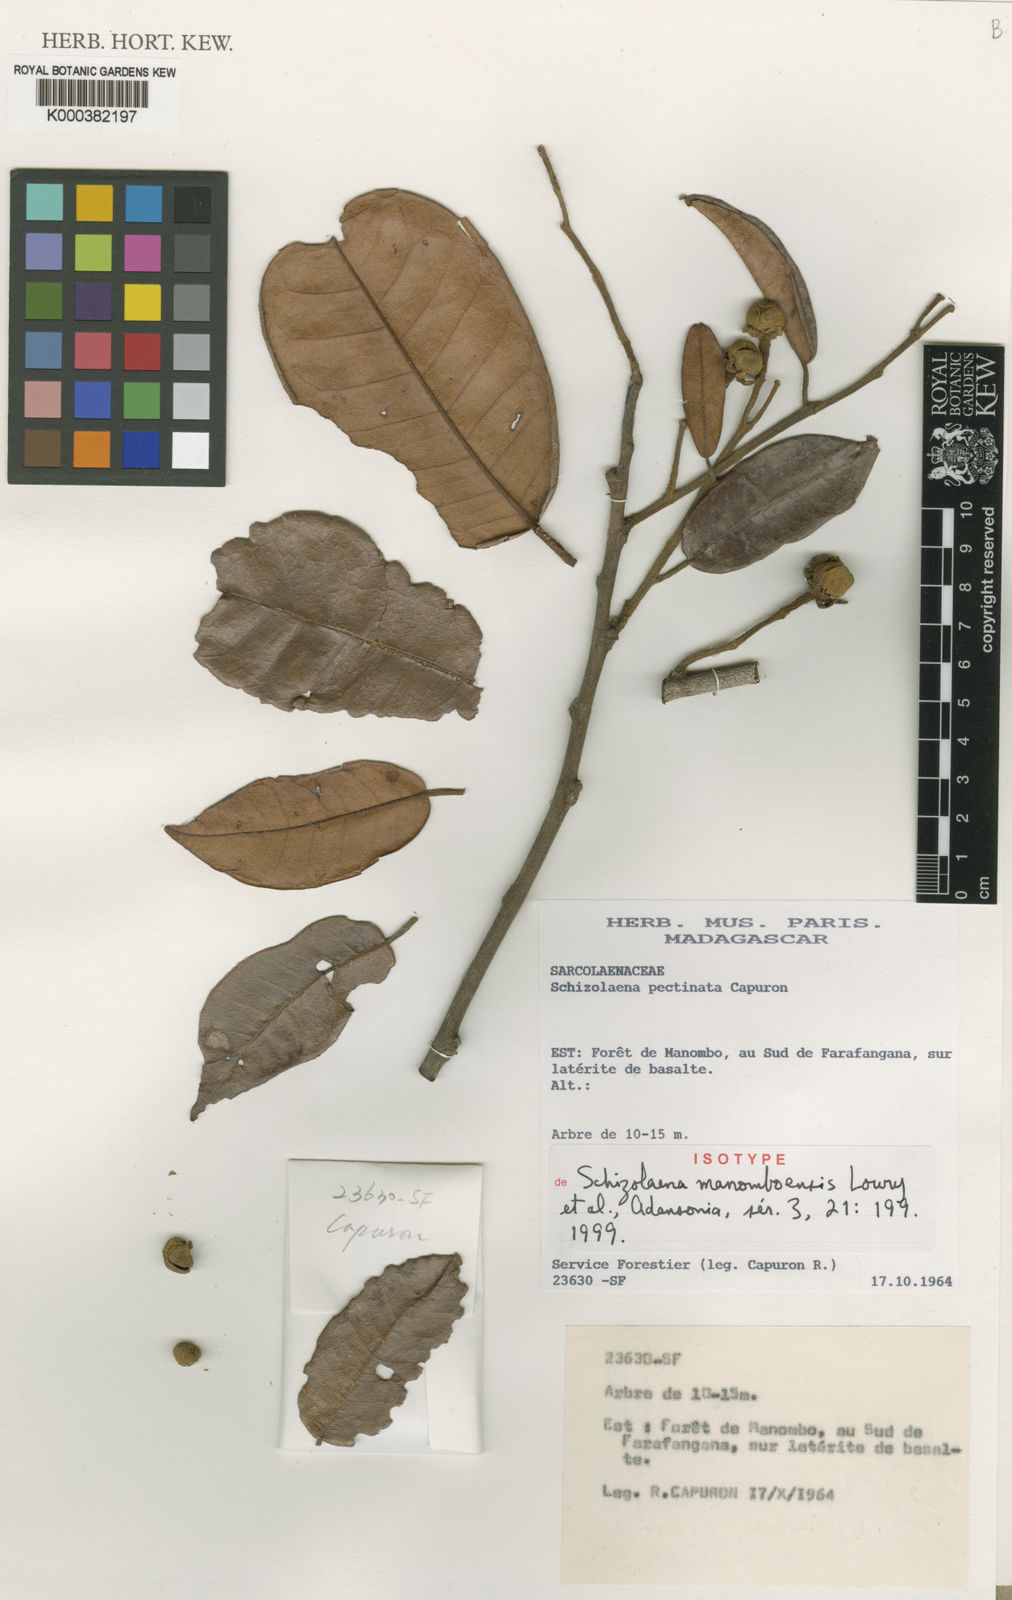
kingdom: Plantae
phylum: Tracheophyta
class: Magnoliopsida
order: Malvales
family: Sarcolaenaceae
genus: Schizolaena
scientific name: Schizolaena
